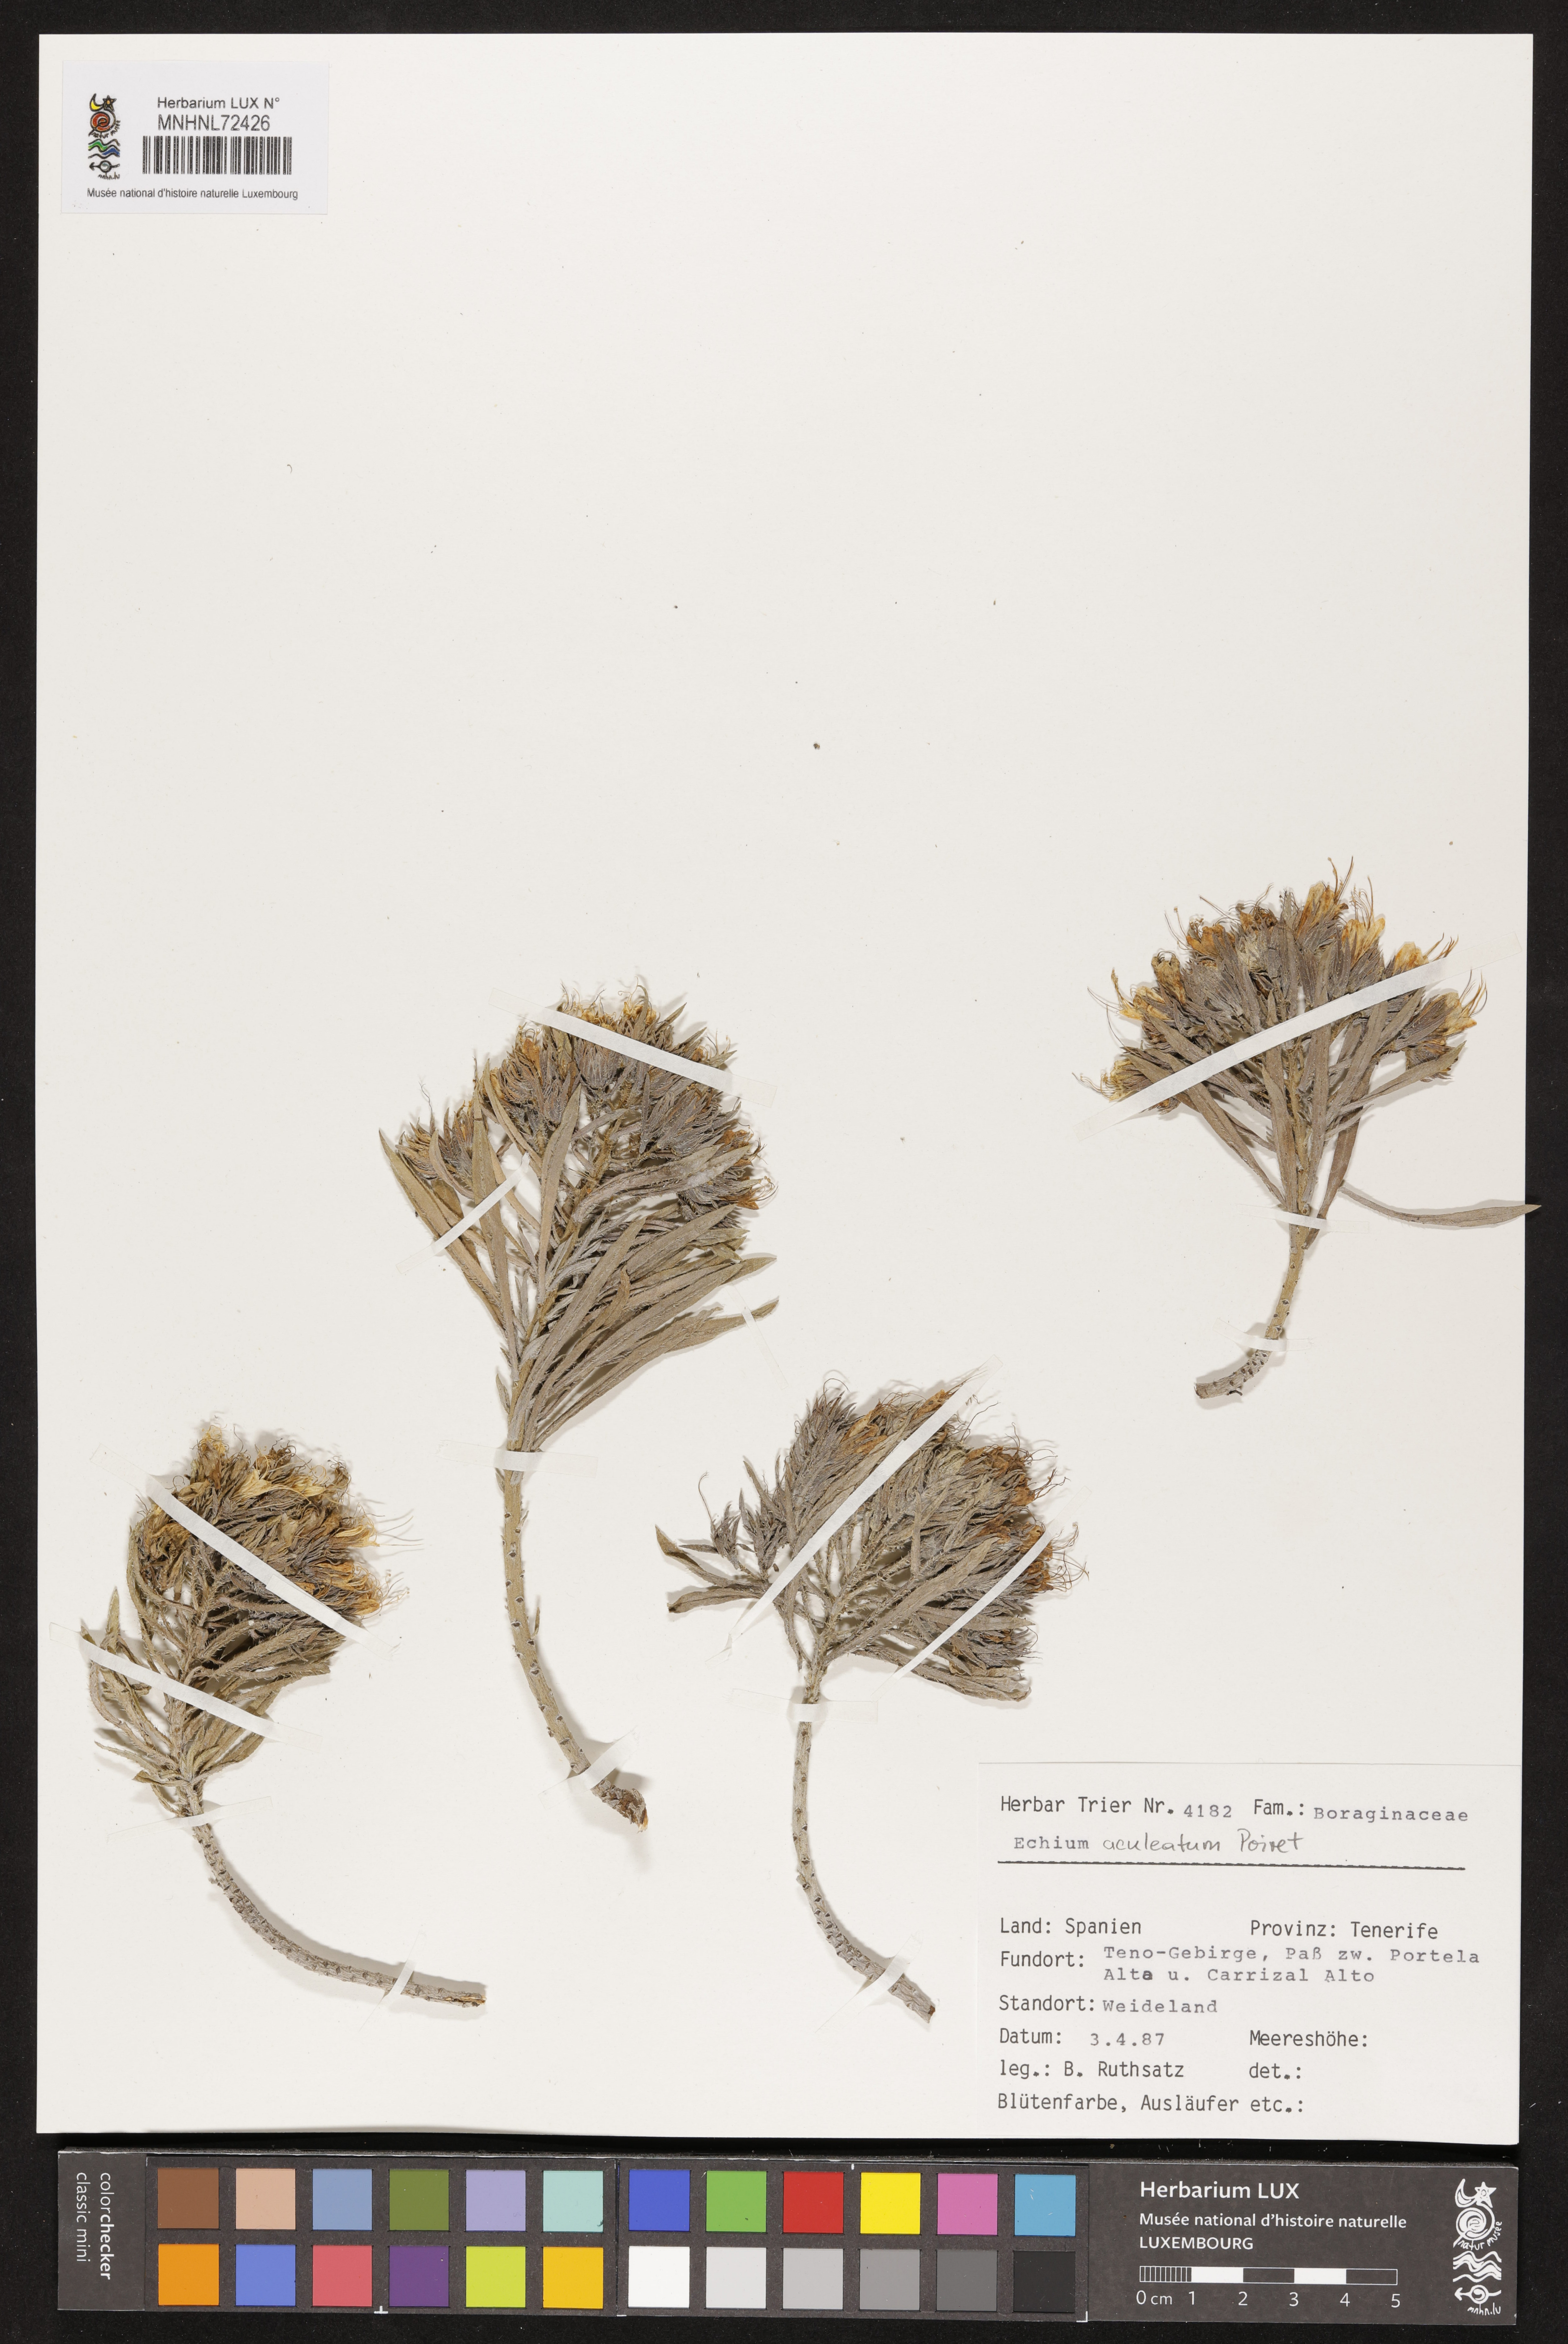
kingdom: Plantae
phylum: Tracheophyta
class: Magnoliopsida
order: Boraginales
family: Boraginaceae
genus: Echium
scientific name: Echium aculeatum
